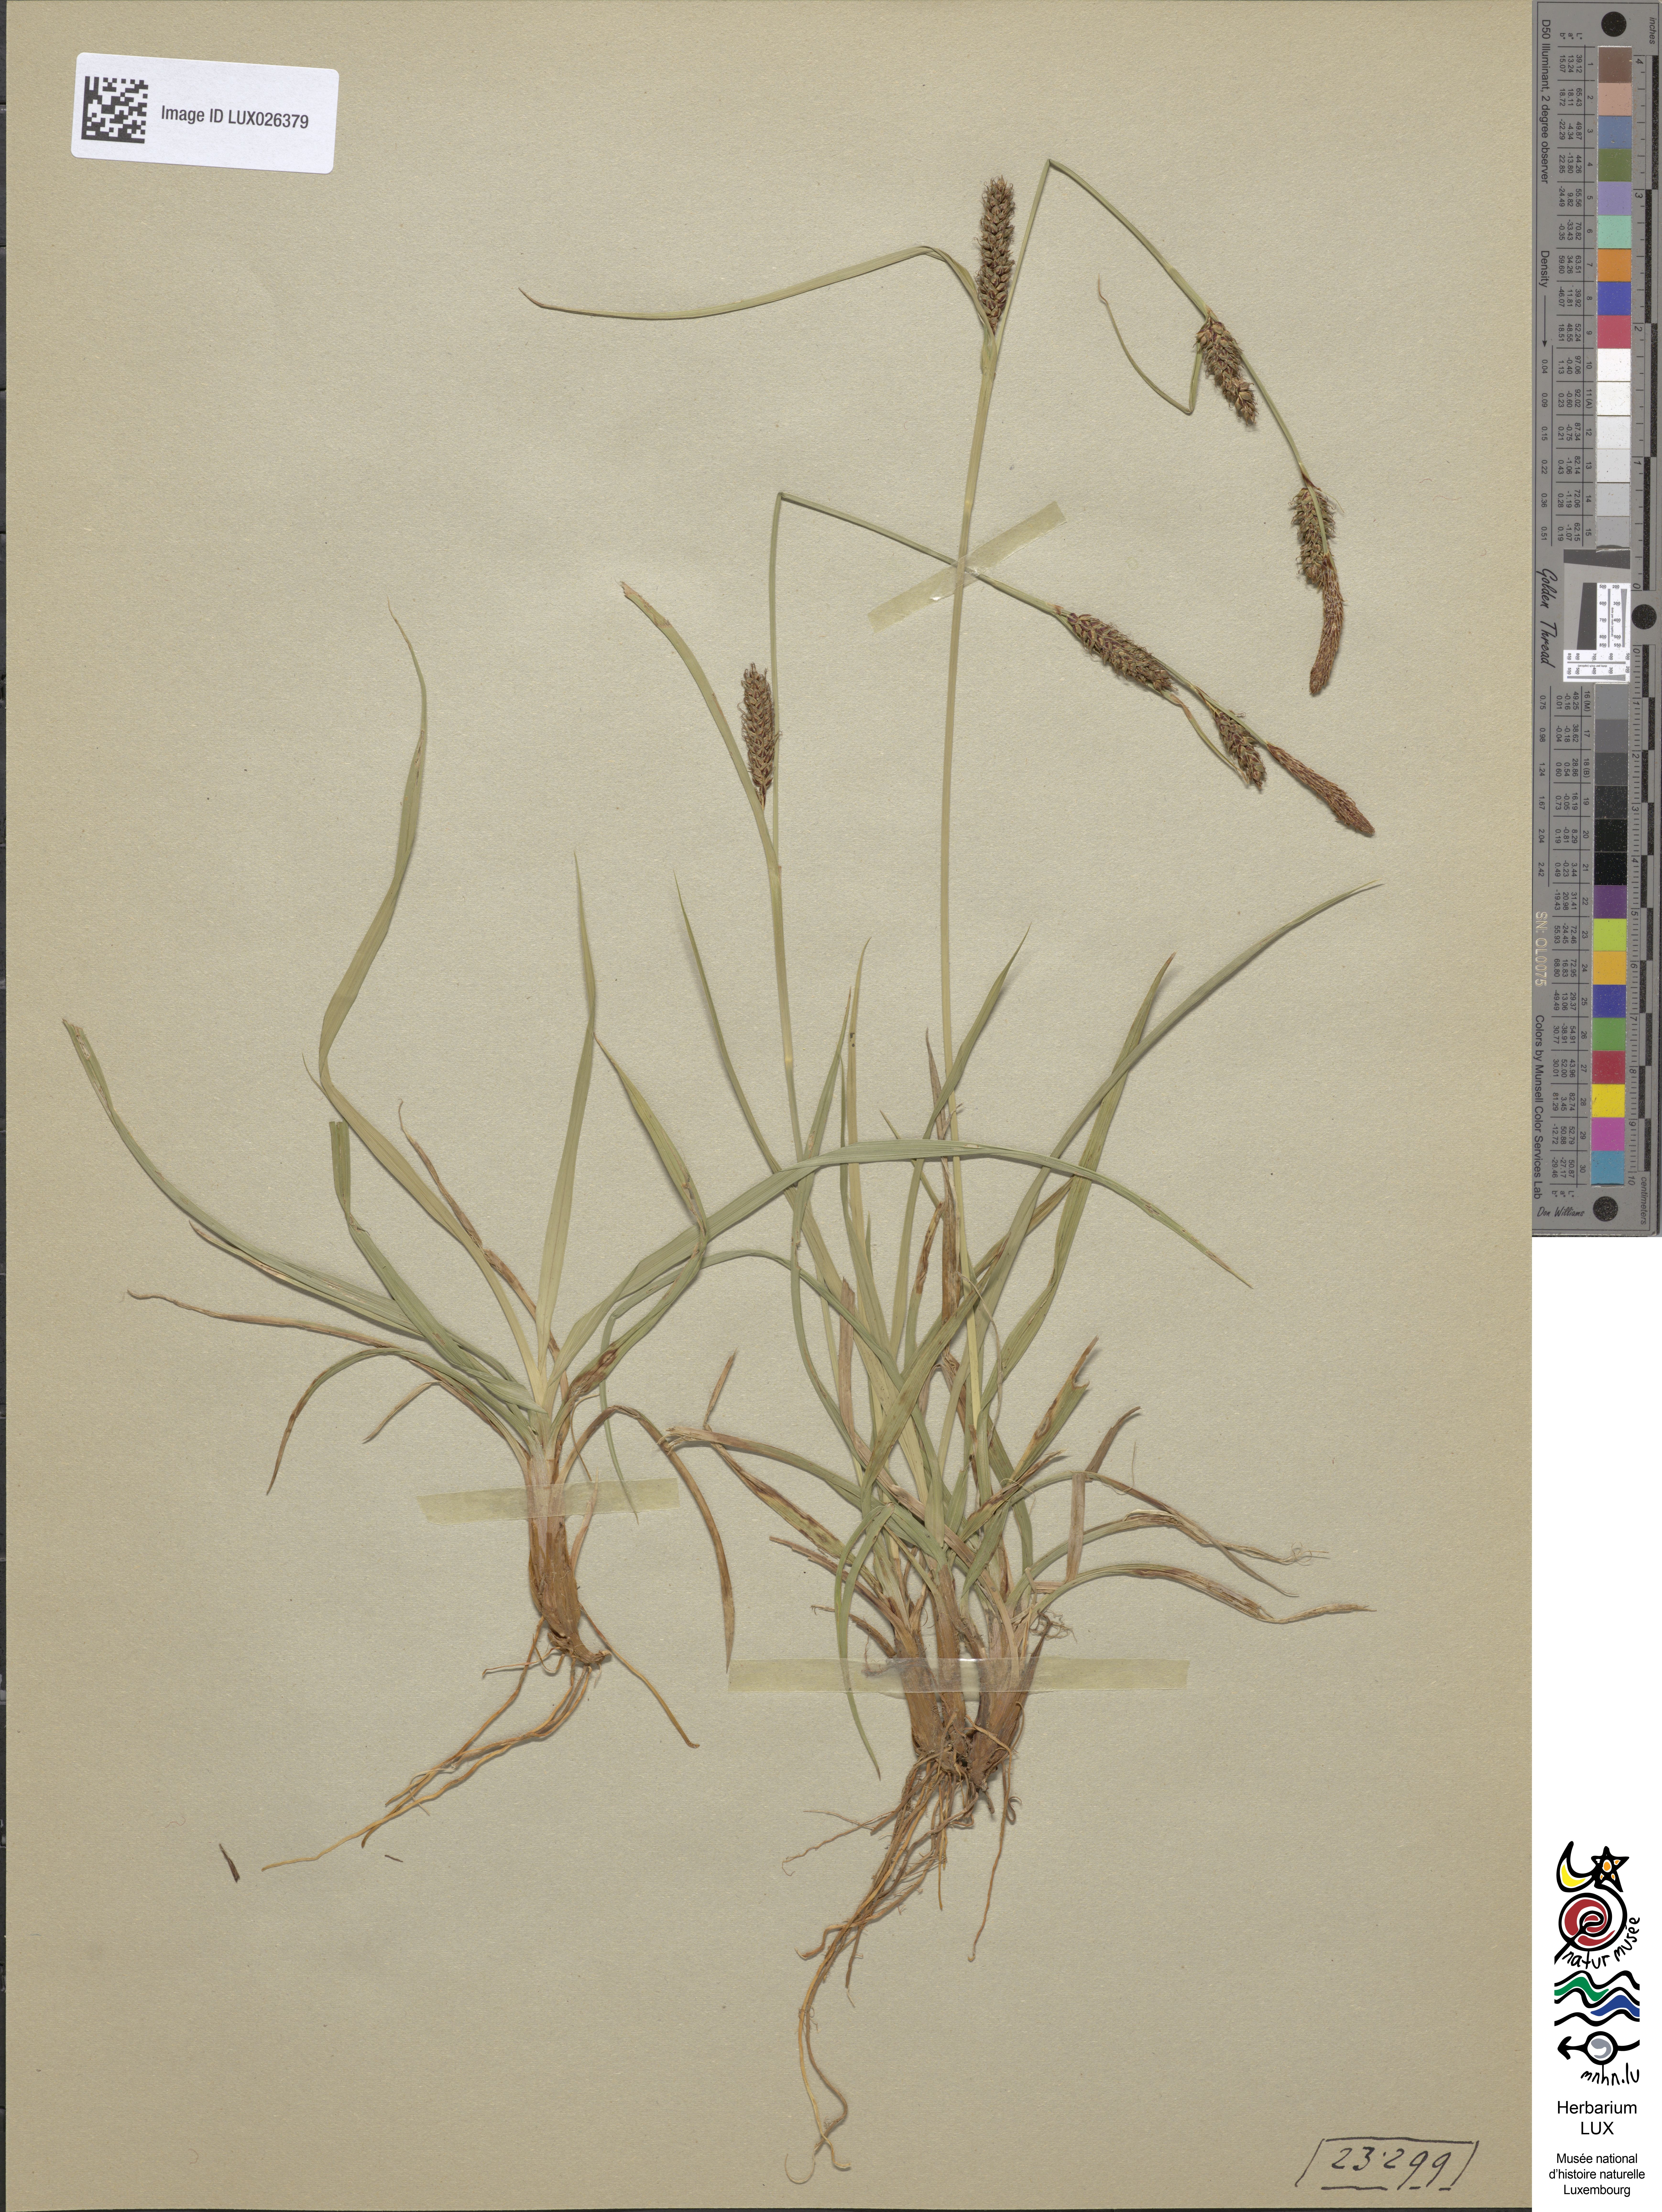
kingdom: Plantae
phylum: Tracheophyta
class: Liliopsida
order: Poales
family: Cyperaceae
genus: Carex
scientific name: Carex distans
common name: Distant sedge
